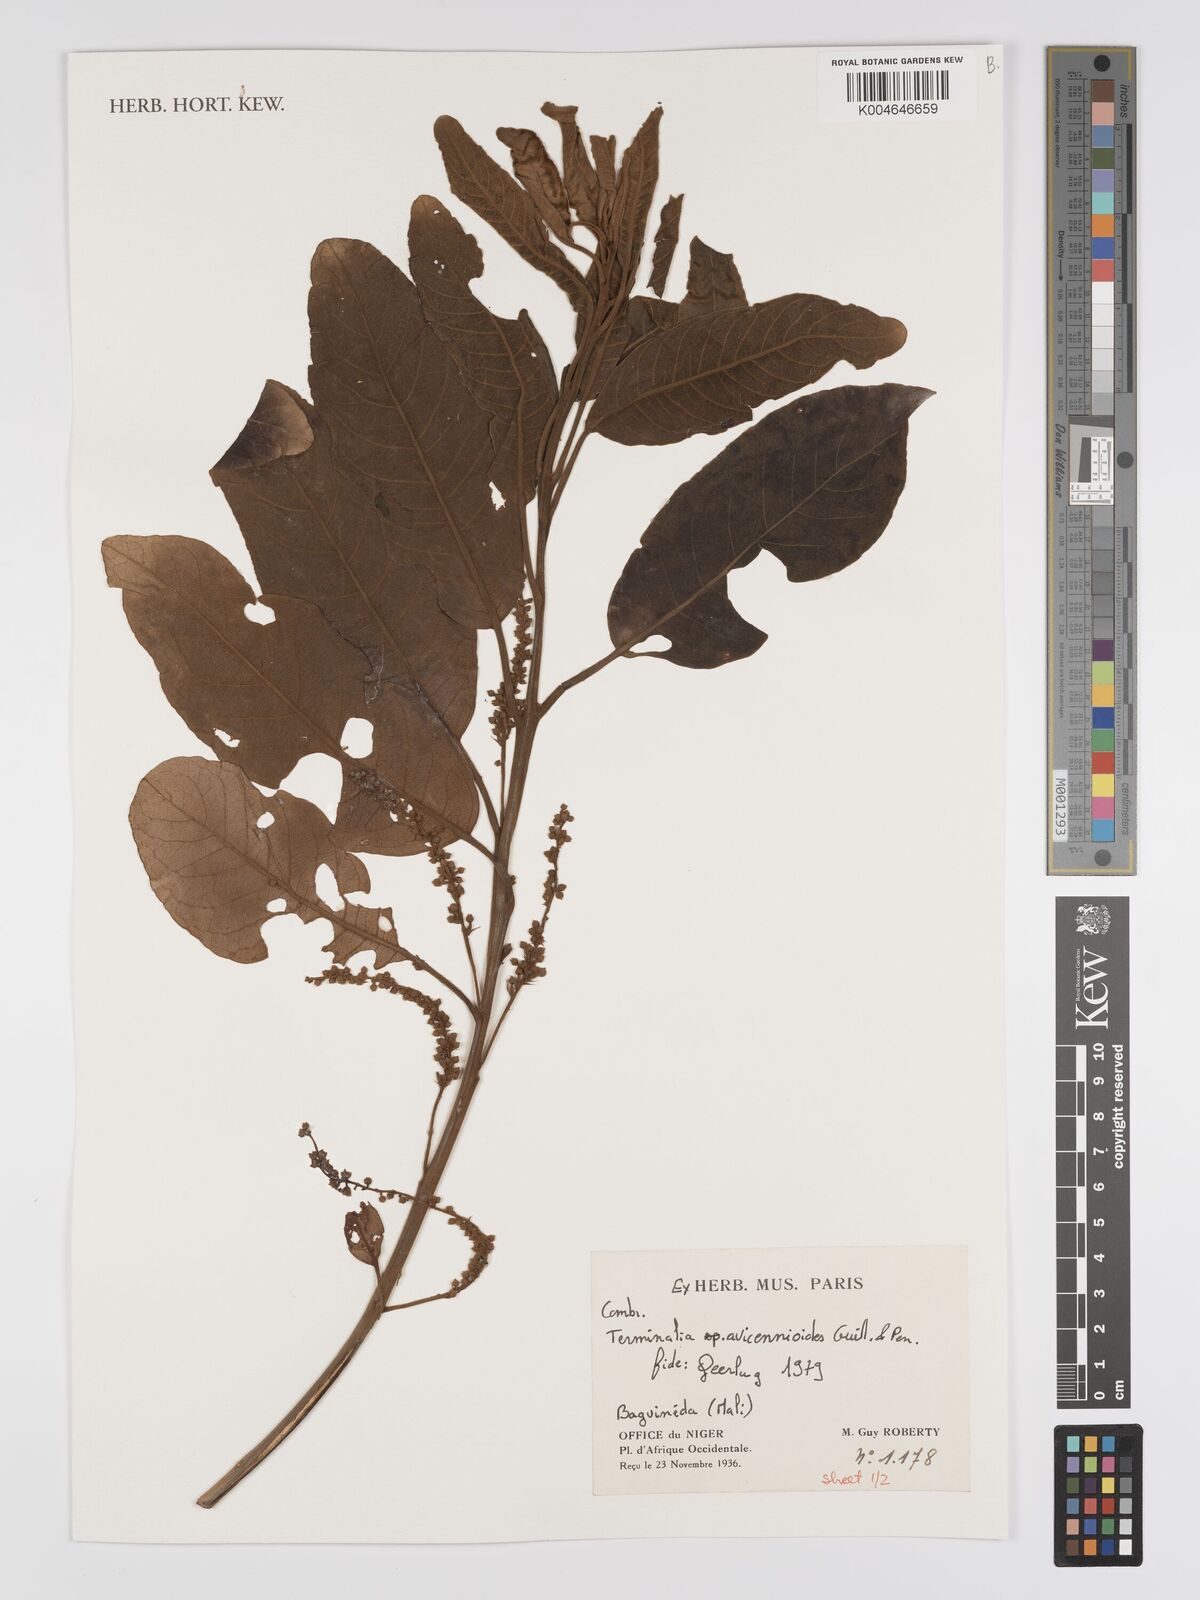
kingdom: Plantae
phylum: Tracheophyta
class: Magnoliopsida
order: Myrtales
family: Combretaceae
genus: Terminalia
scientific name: Terminalia avicennioides
